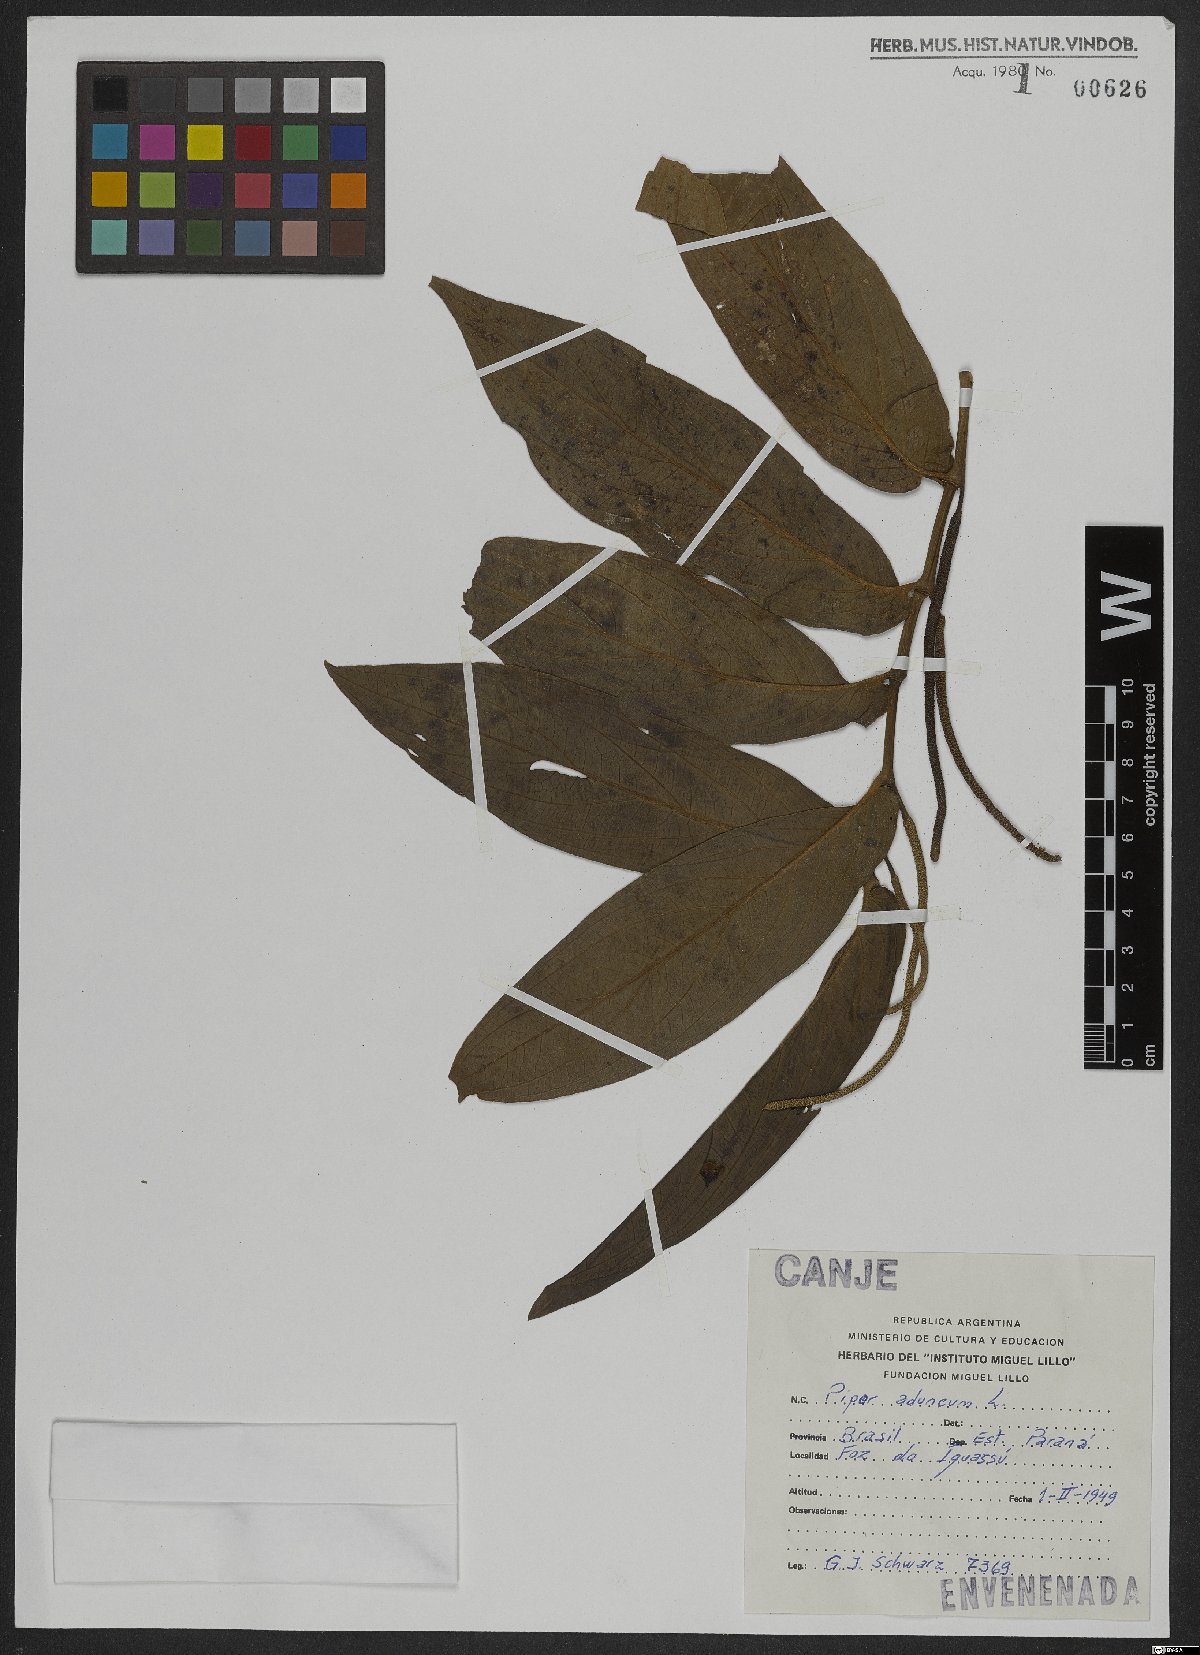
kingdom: Plantae
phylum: Tracheophyta
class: Magnoliopsida
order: Piperales
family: Piperaceae
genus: Piper
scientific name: Piper aduncum
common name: Spiked pepper
